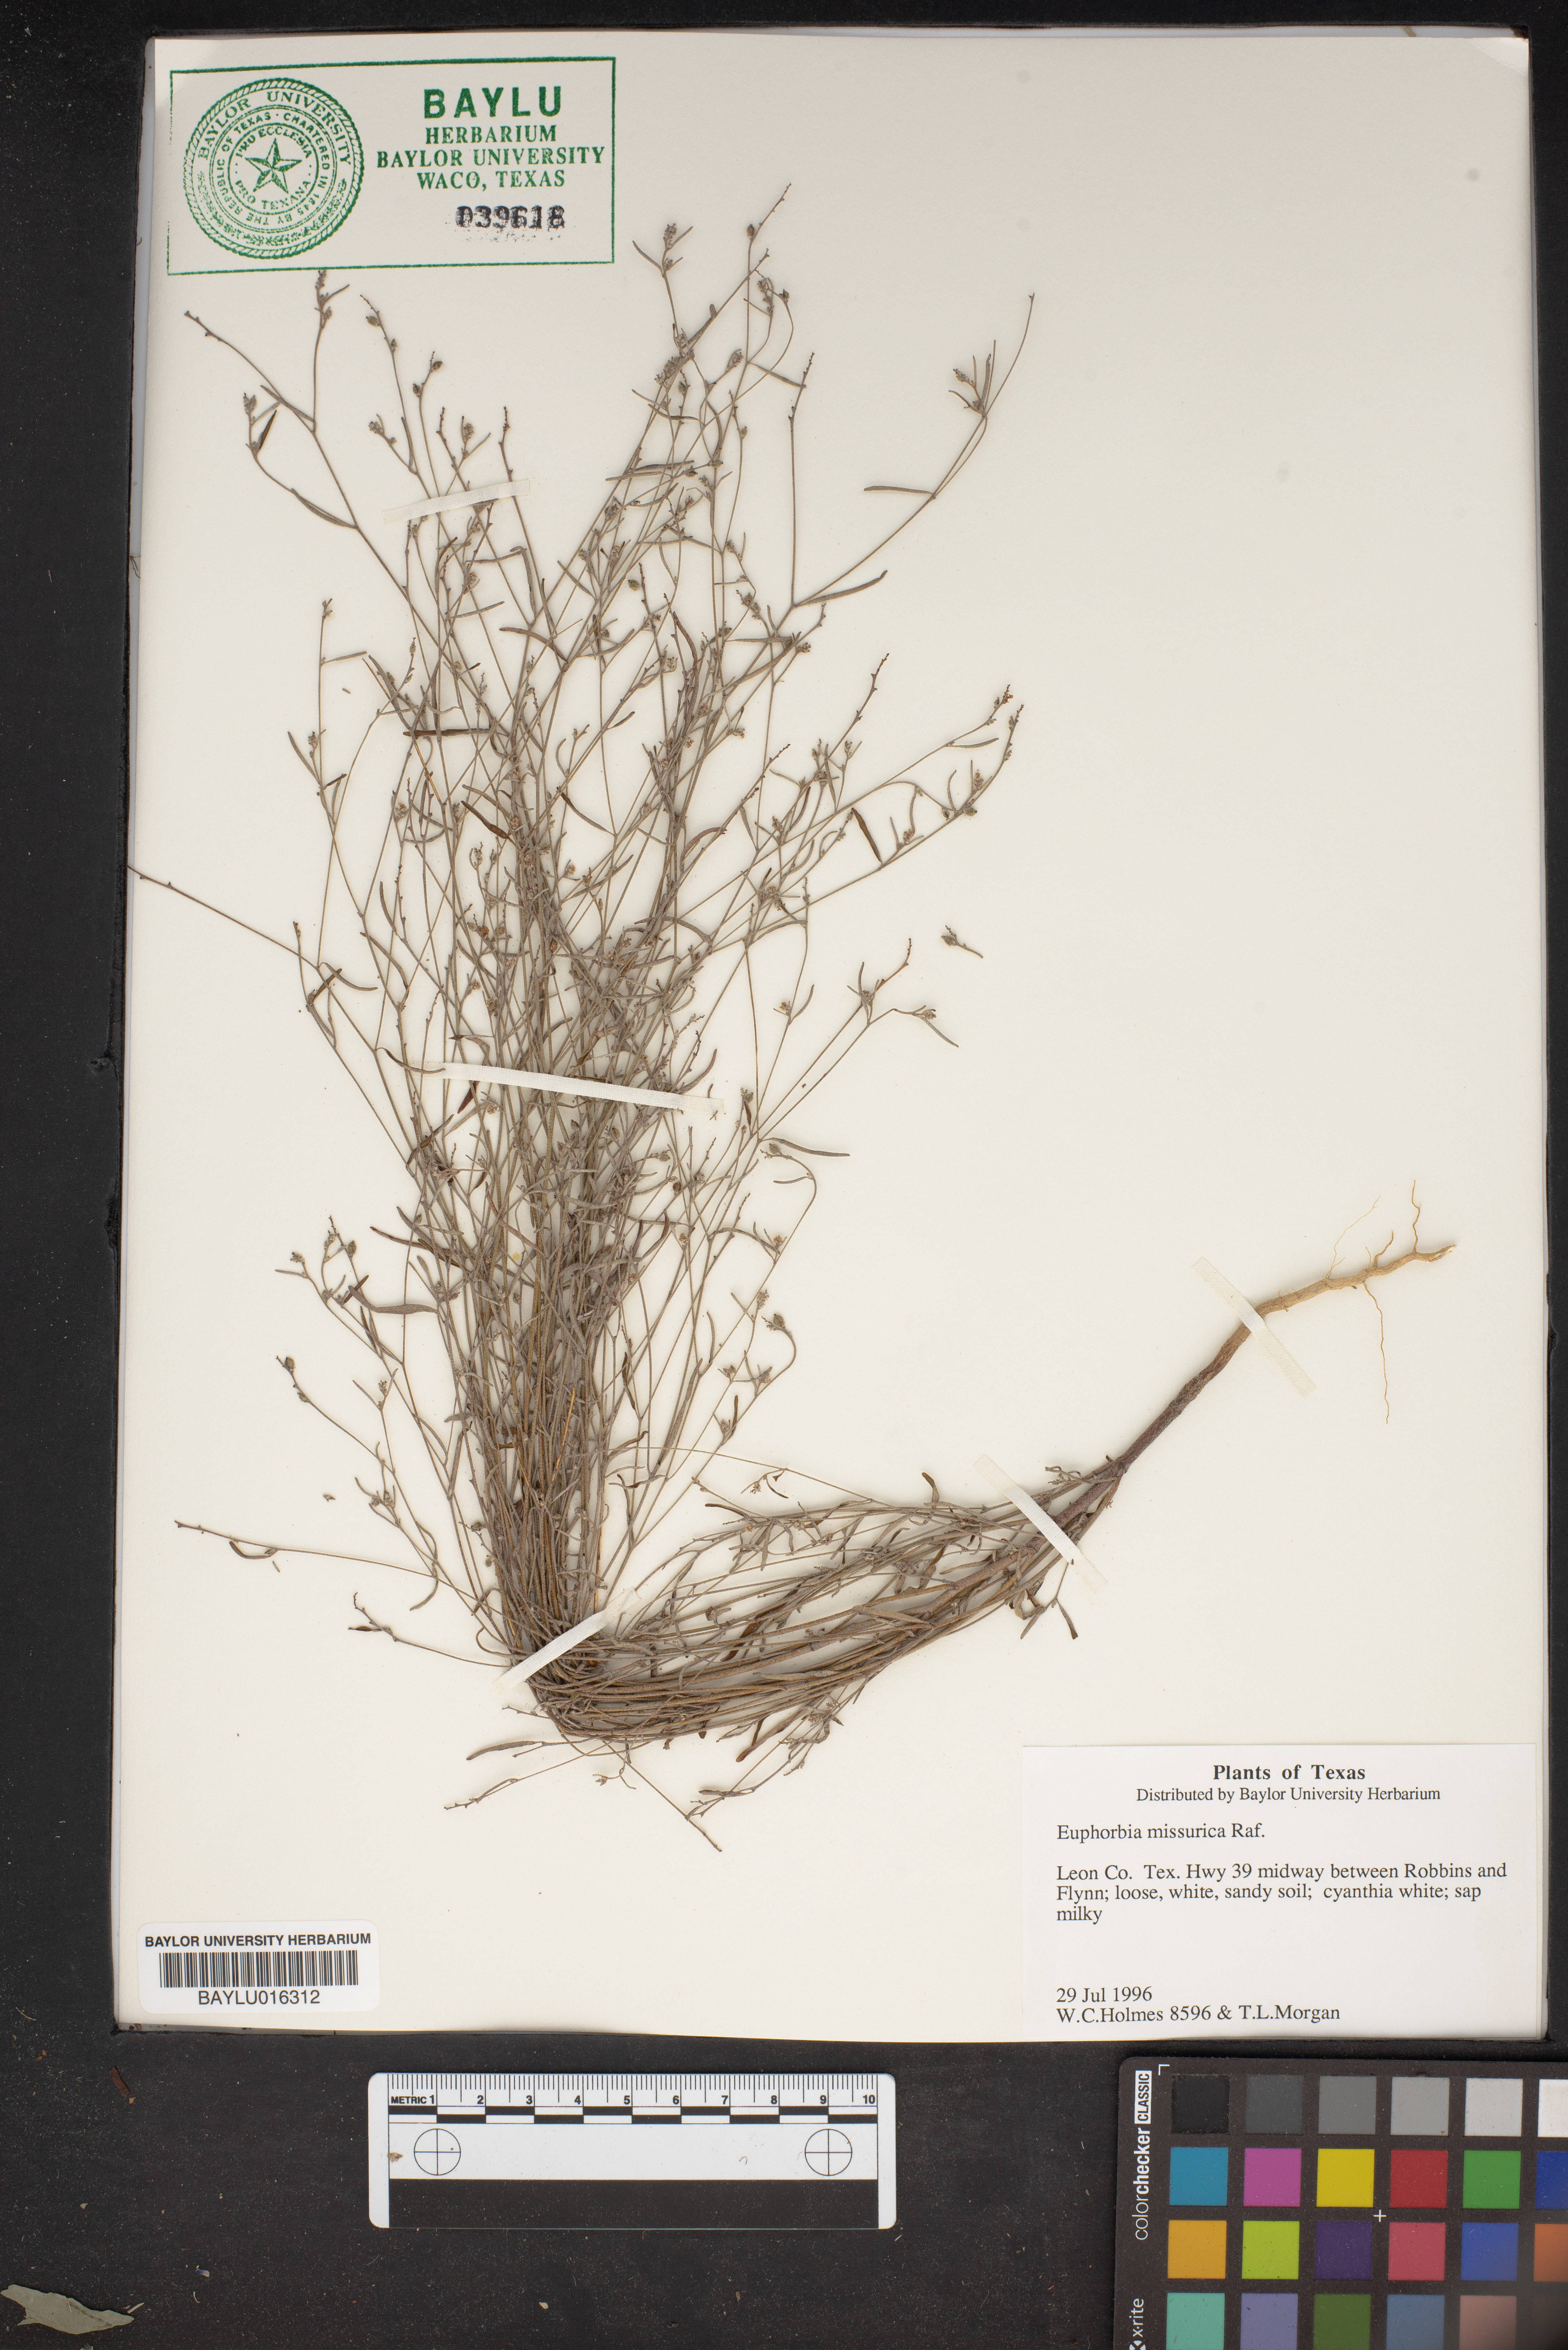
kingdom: Plantae
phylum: Tracheophyta
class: Magnoliopsida
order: Malpighiales
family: Euphorbiaceae
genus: Euphorbia
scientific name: Euphorbia missurica
